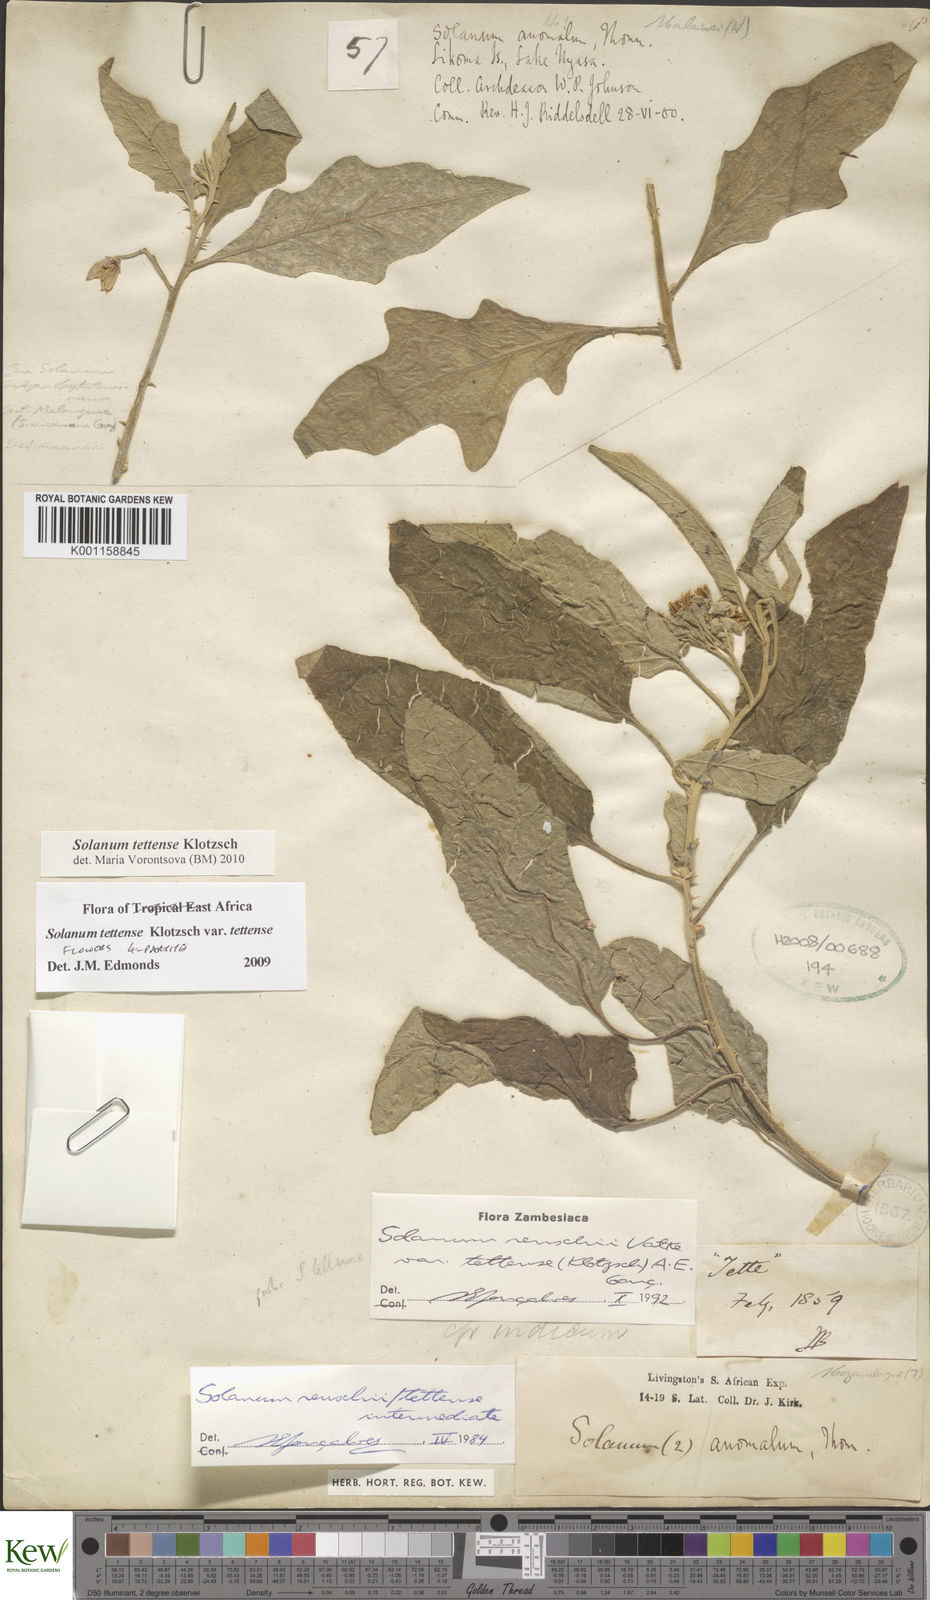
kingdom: Plantae
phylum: Tracheophyta
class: Magnoliopsida
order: Solanales
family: Solanaceae
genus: Solanum
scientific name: Solanum tettense
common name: Mozambique bitter apple
